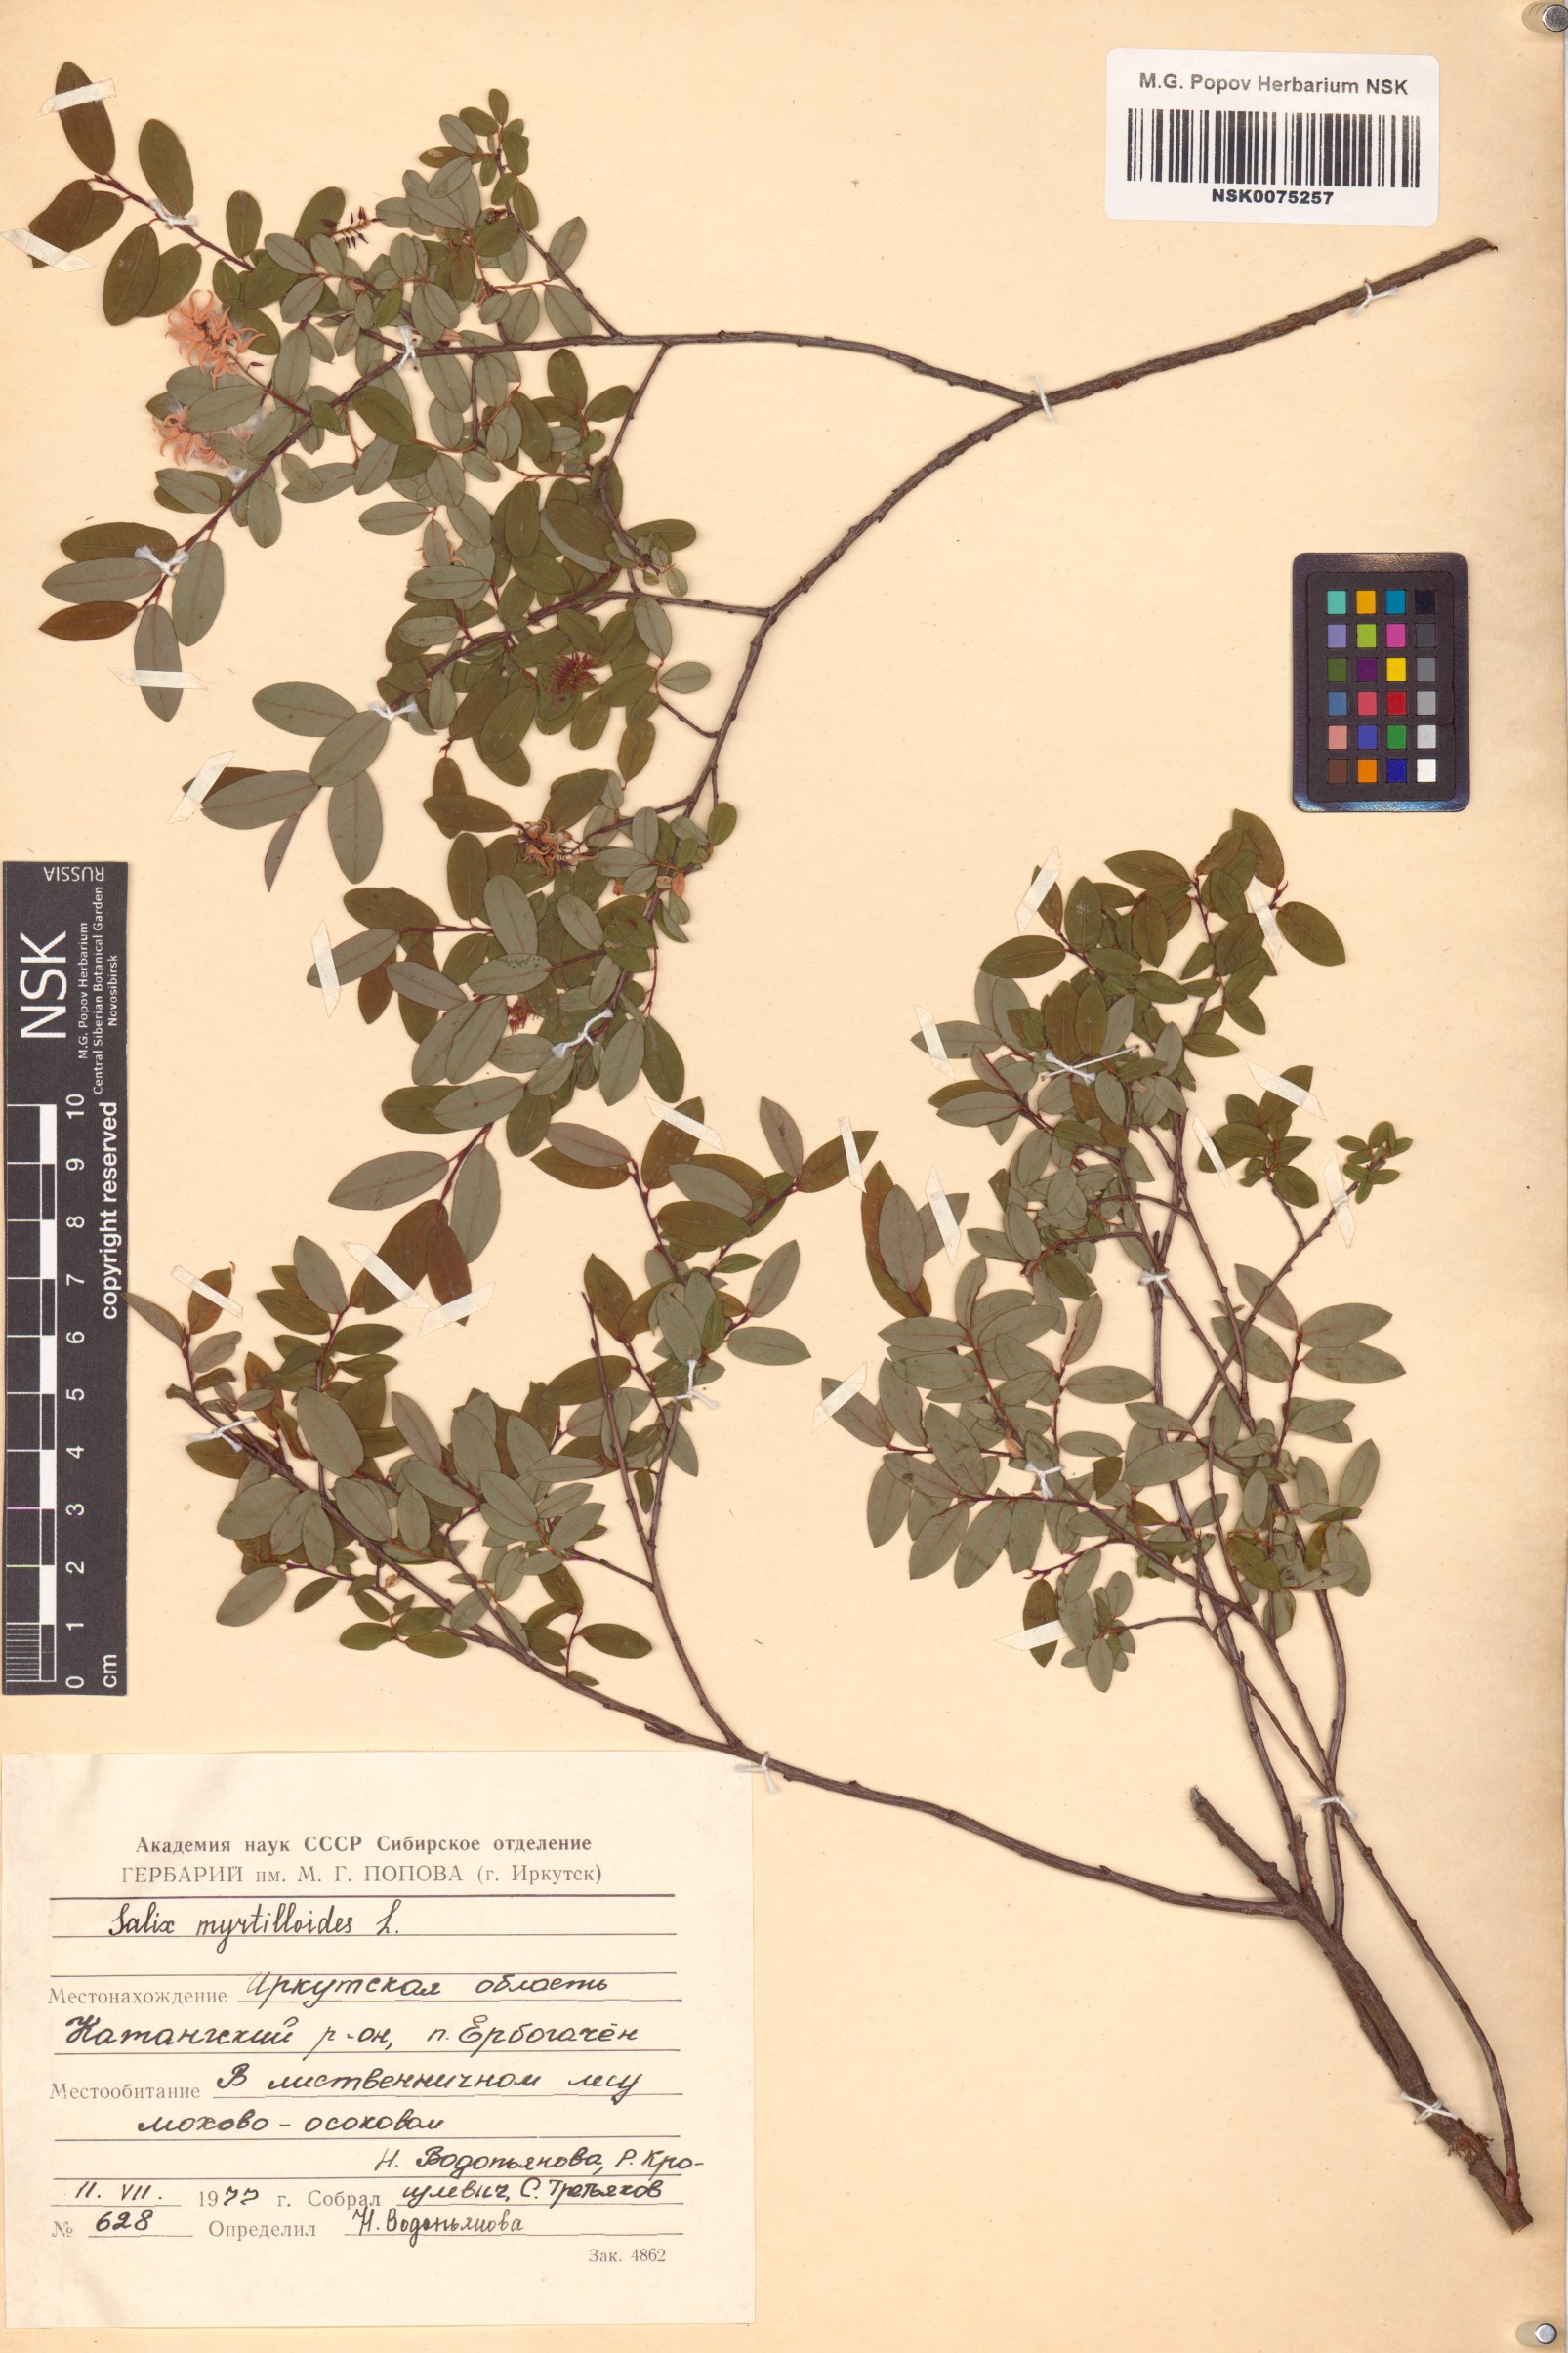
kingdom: Plantae
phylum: Tracheophyta
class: Magnoliopsida
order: Malpighiales
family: Salicaceae
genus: Salix
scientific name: Salix myrtilloides
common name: Myrtle-leaved willow
